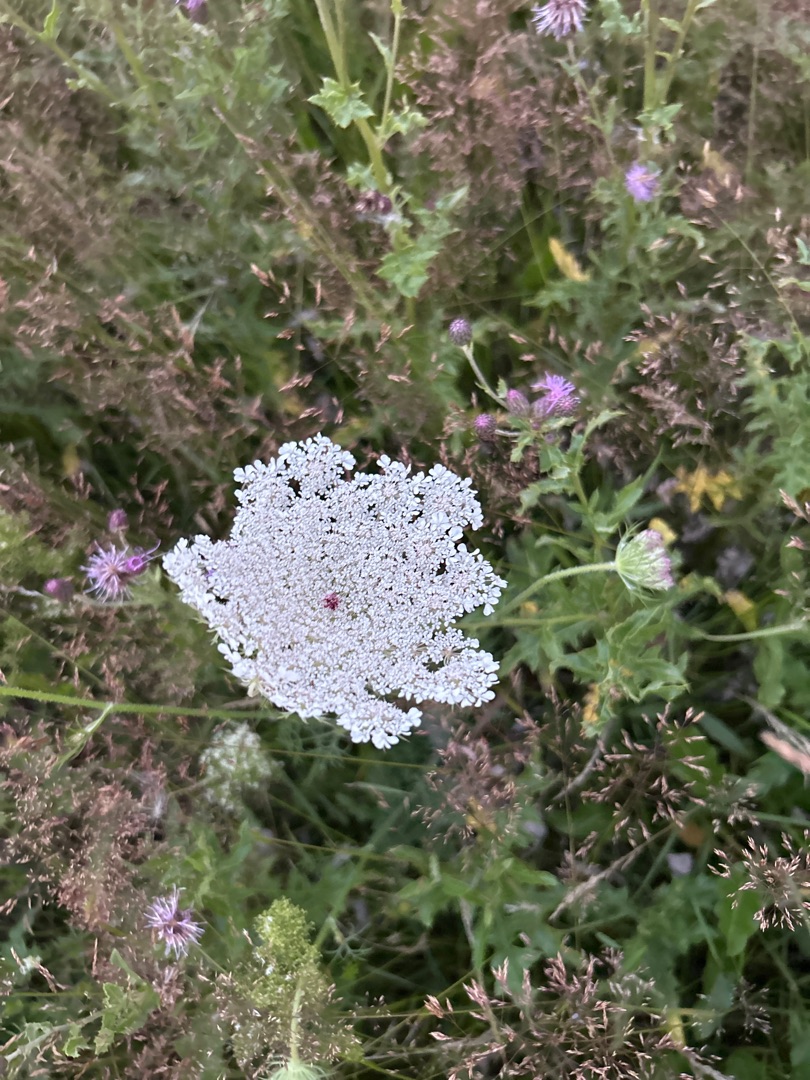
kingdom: Plantae
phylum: Tracheophyta
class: Magnoliopsida
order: Apiales
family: Apiaceae
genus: Daucus
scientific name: Daucus carota
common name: Gulerod
